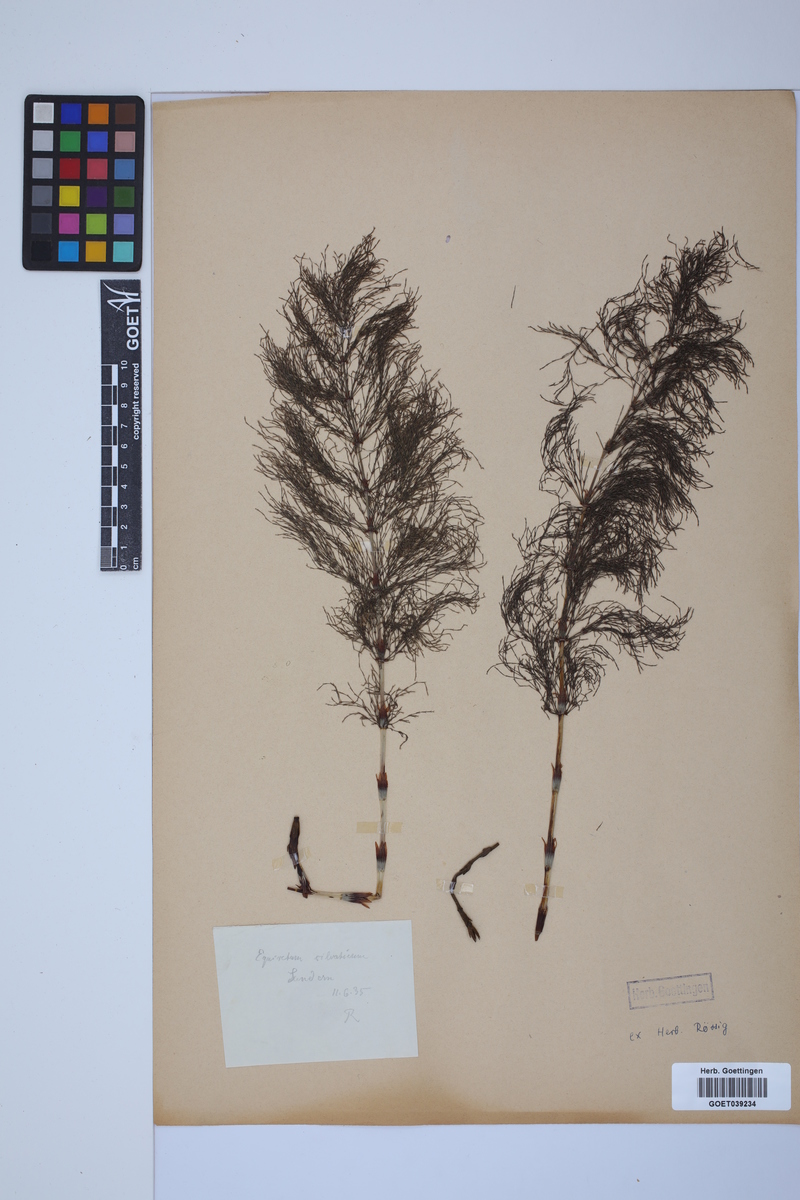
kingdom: Plantae
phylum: Tracheophyta
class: Polypodiopsida
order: Equisetales
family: Equisetaceae
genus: Equisetum
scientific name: Equisetum sylvaticum
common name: Wood horsetail
